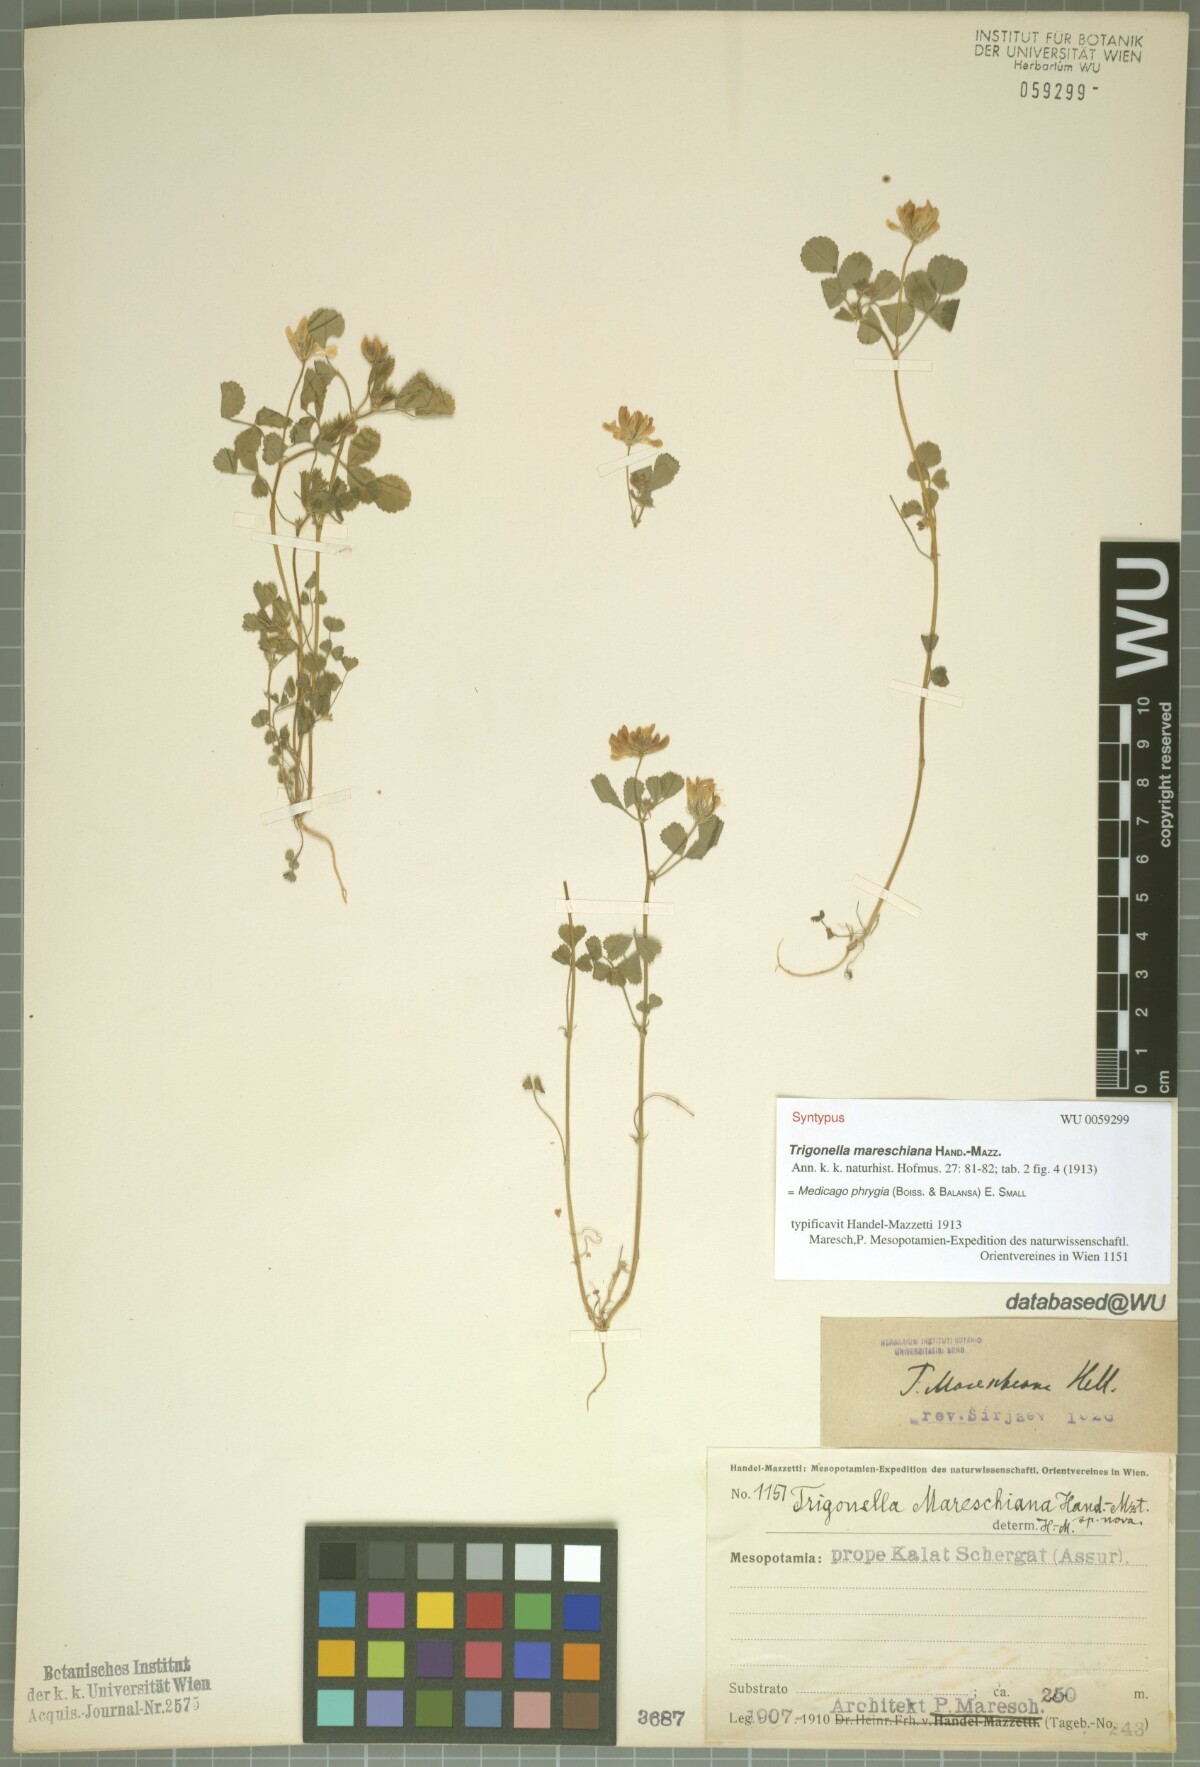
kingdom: Plantae
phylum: Tracheophyta
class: Magnoliopsida
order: Fabales
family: Fabaceae
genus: Medicago
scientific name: Medicago phrygia
